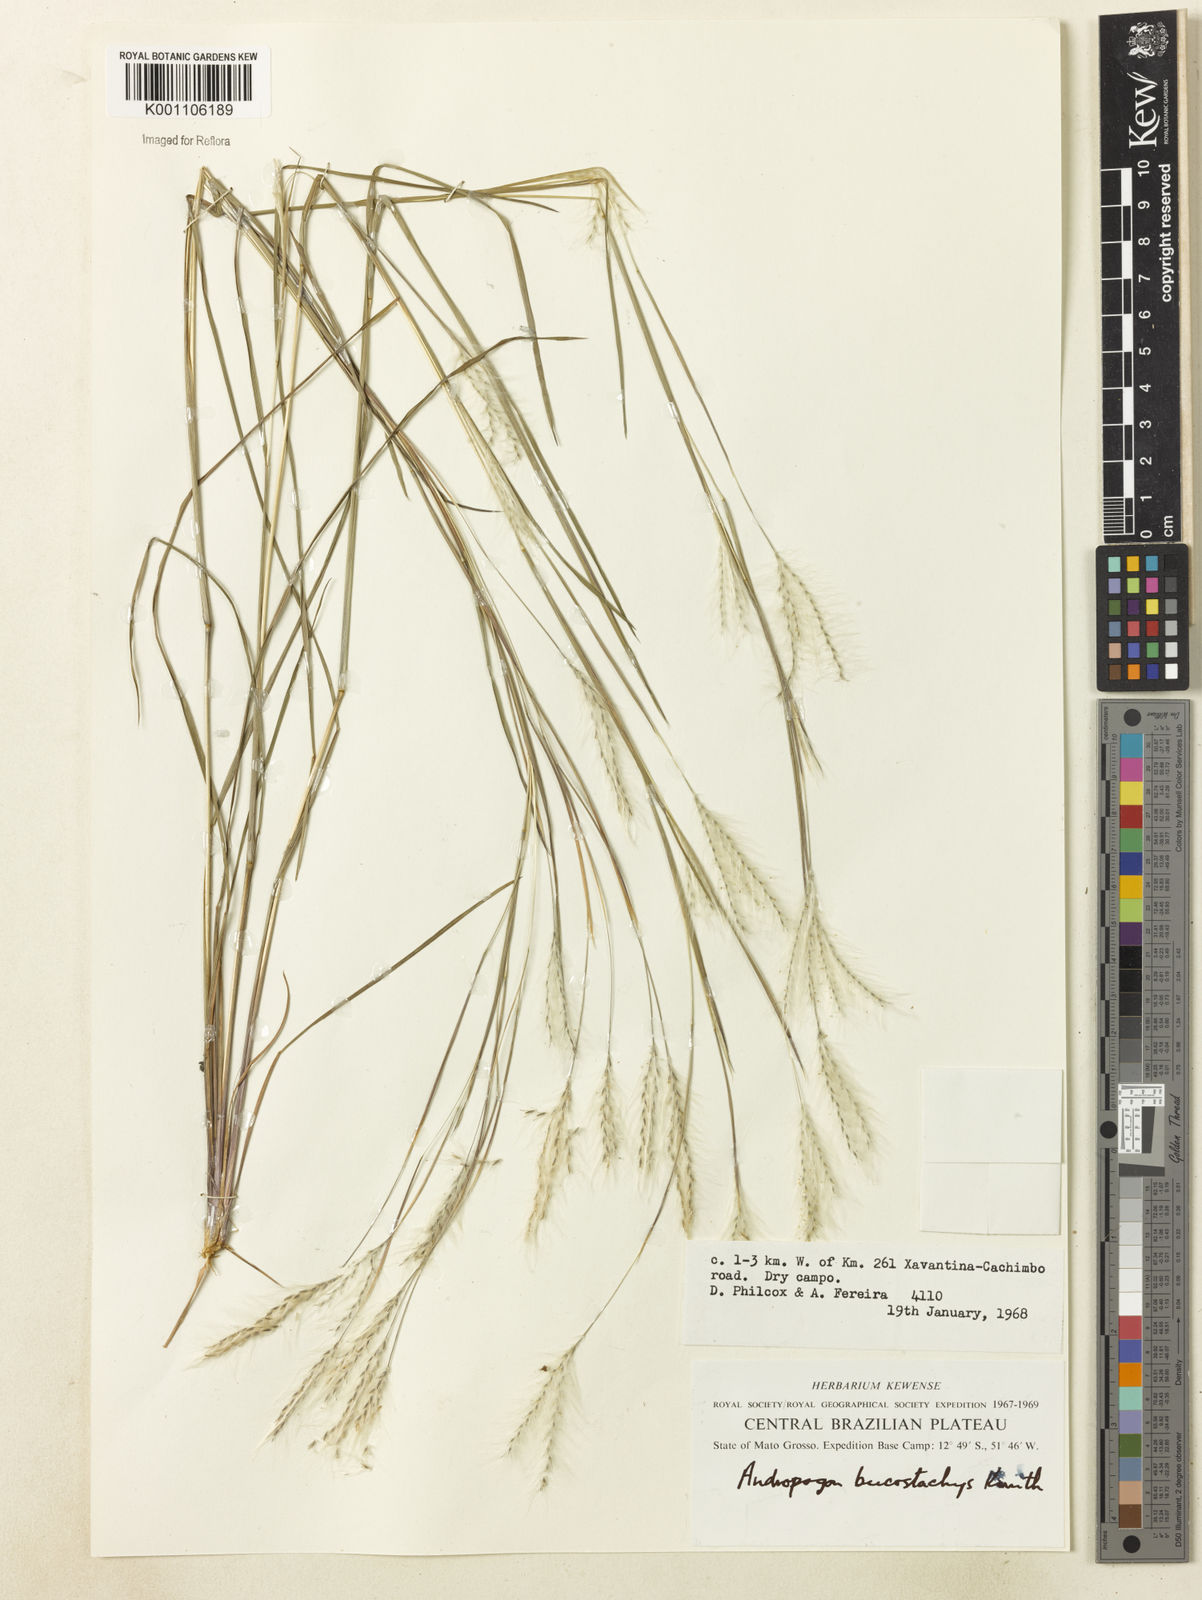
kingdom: Plantae
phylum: Tracheophyta
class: Liliopsida
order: Poales
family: Poaceae
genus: Andropogon
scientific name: Andropogon leucostachyus
